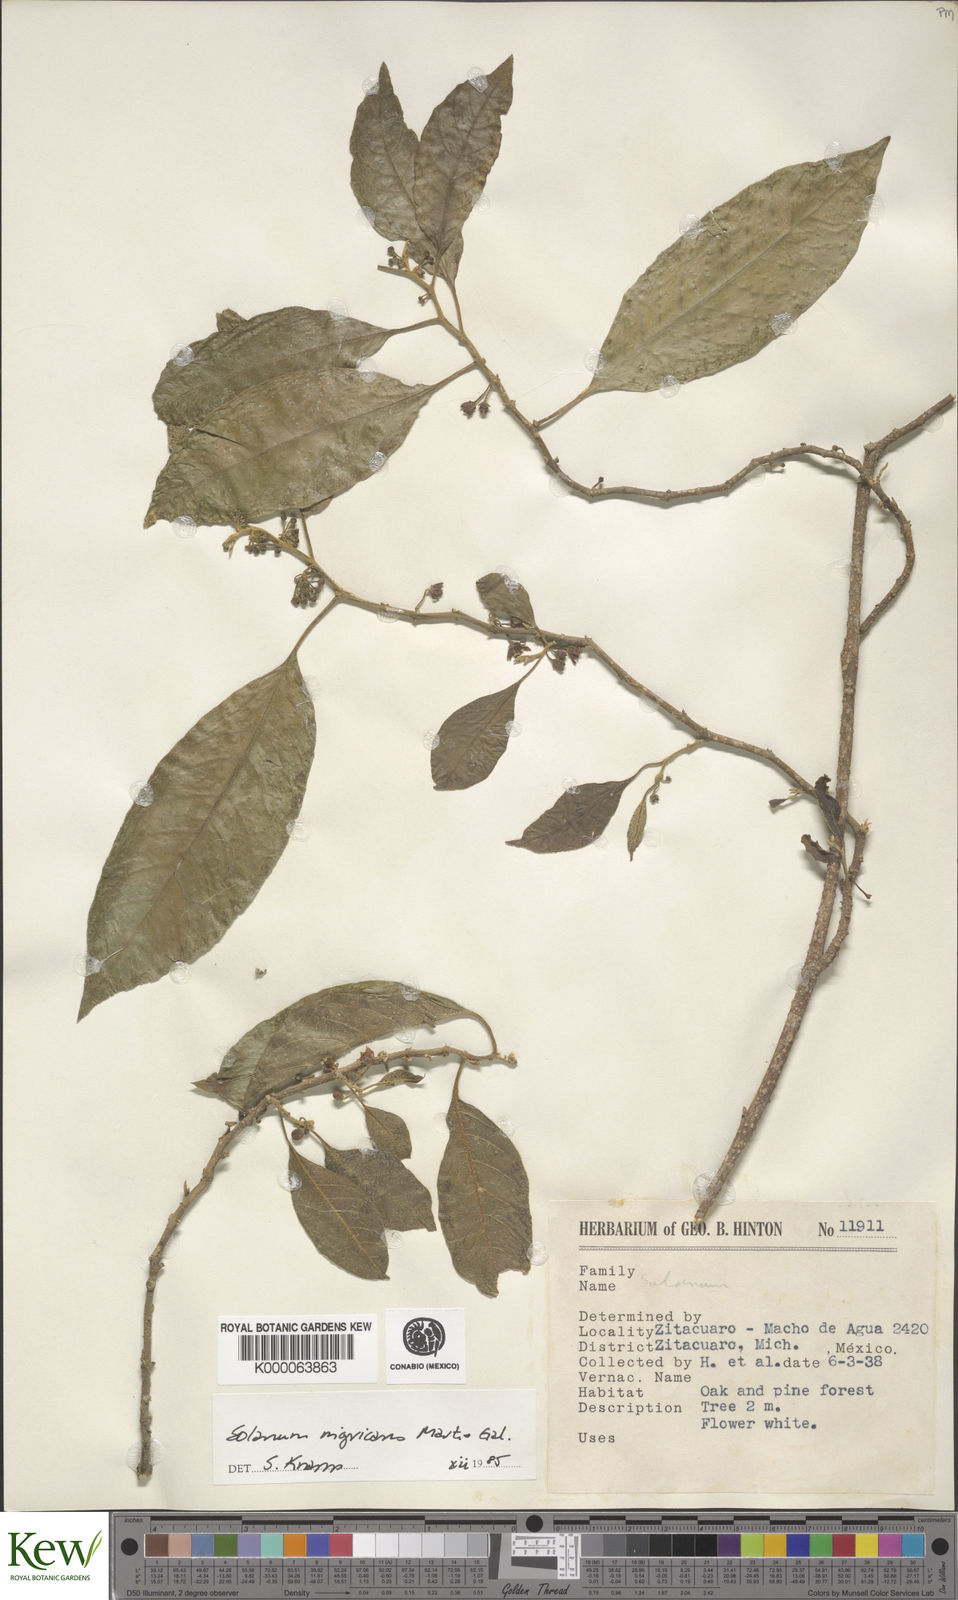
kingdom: Plantae
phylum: Tracheophyta
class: Magnoliopsida
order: Solanales
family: Solanaceae
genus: Solanum
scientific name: Solanum nigricans
